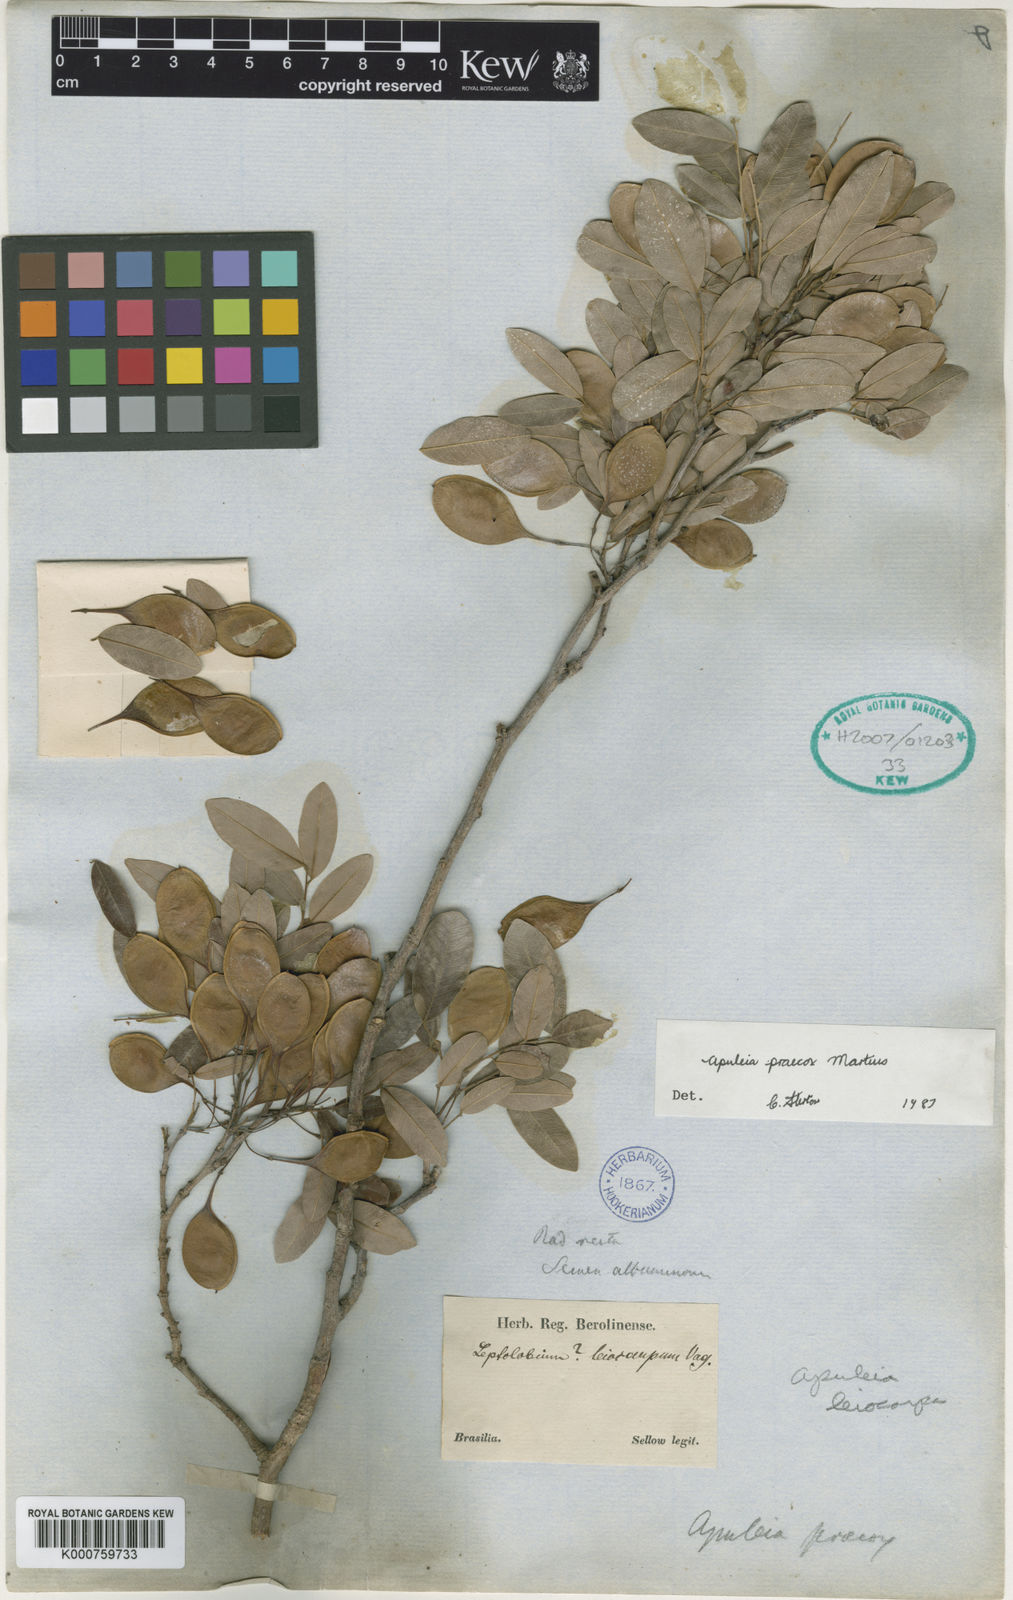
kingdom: Plantae
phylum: Tracheophyta
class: Magnoliopsida
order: Fabales
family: Fabaceae
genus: Apuleia
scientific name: Apuleia leiocarpa
